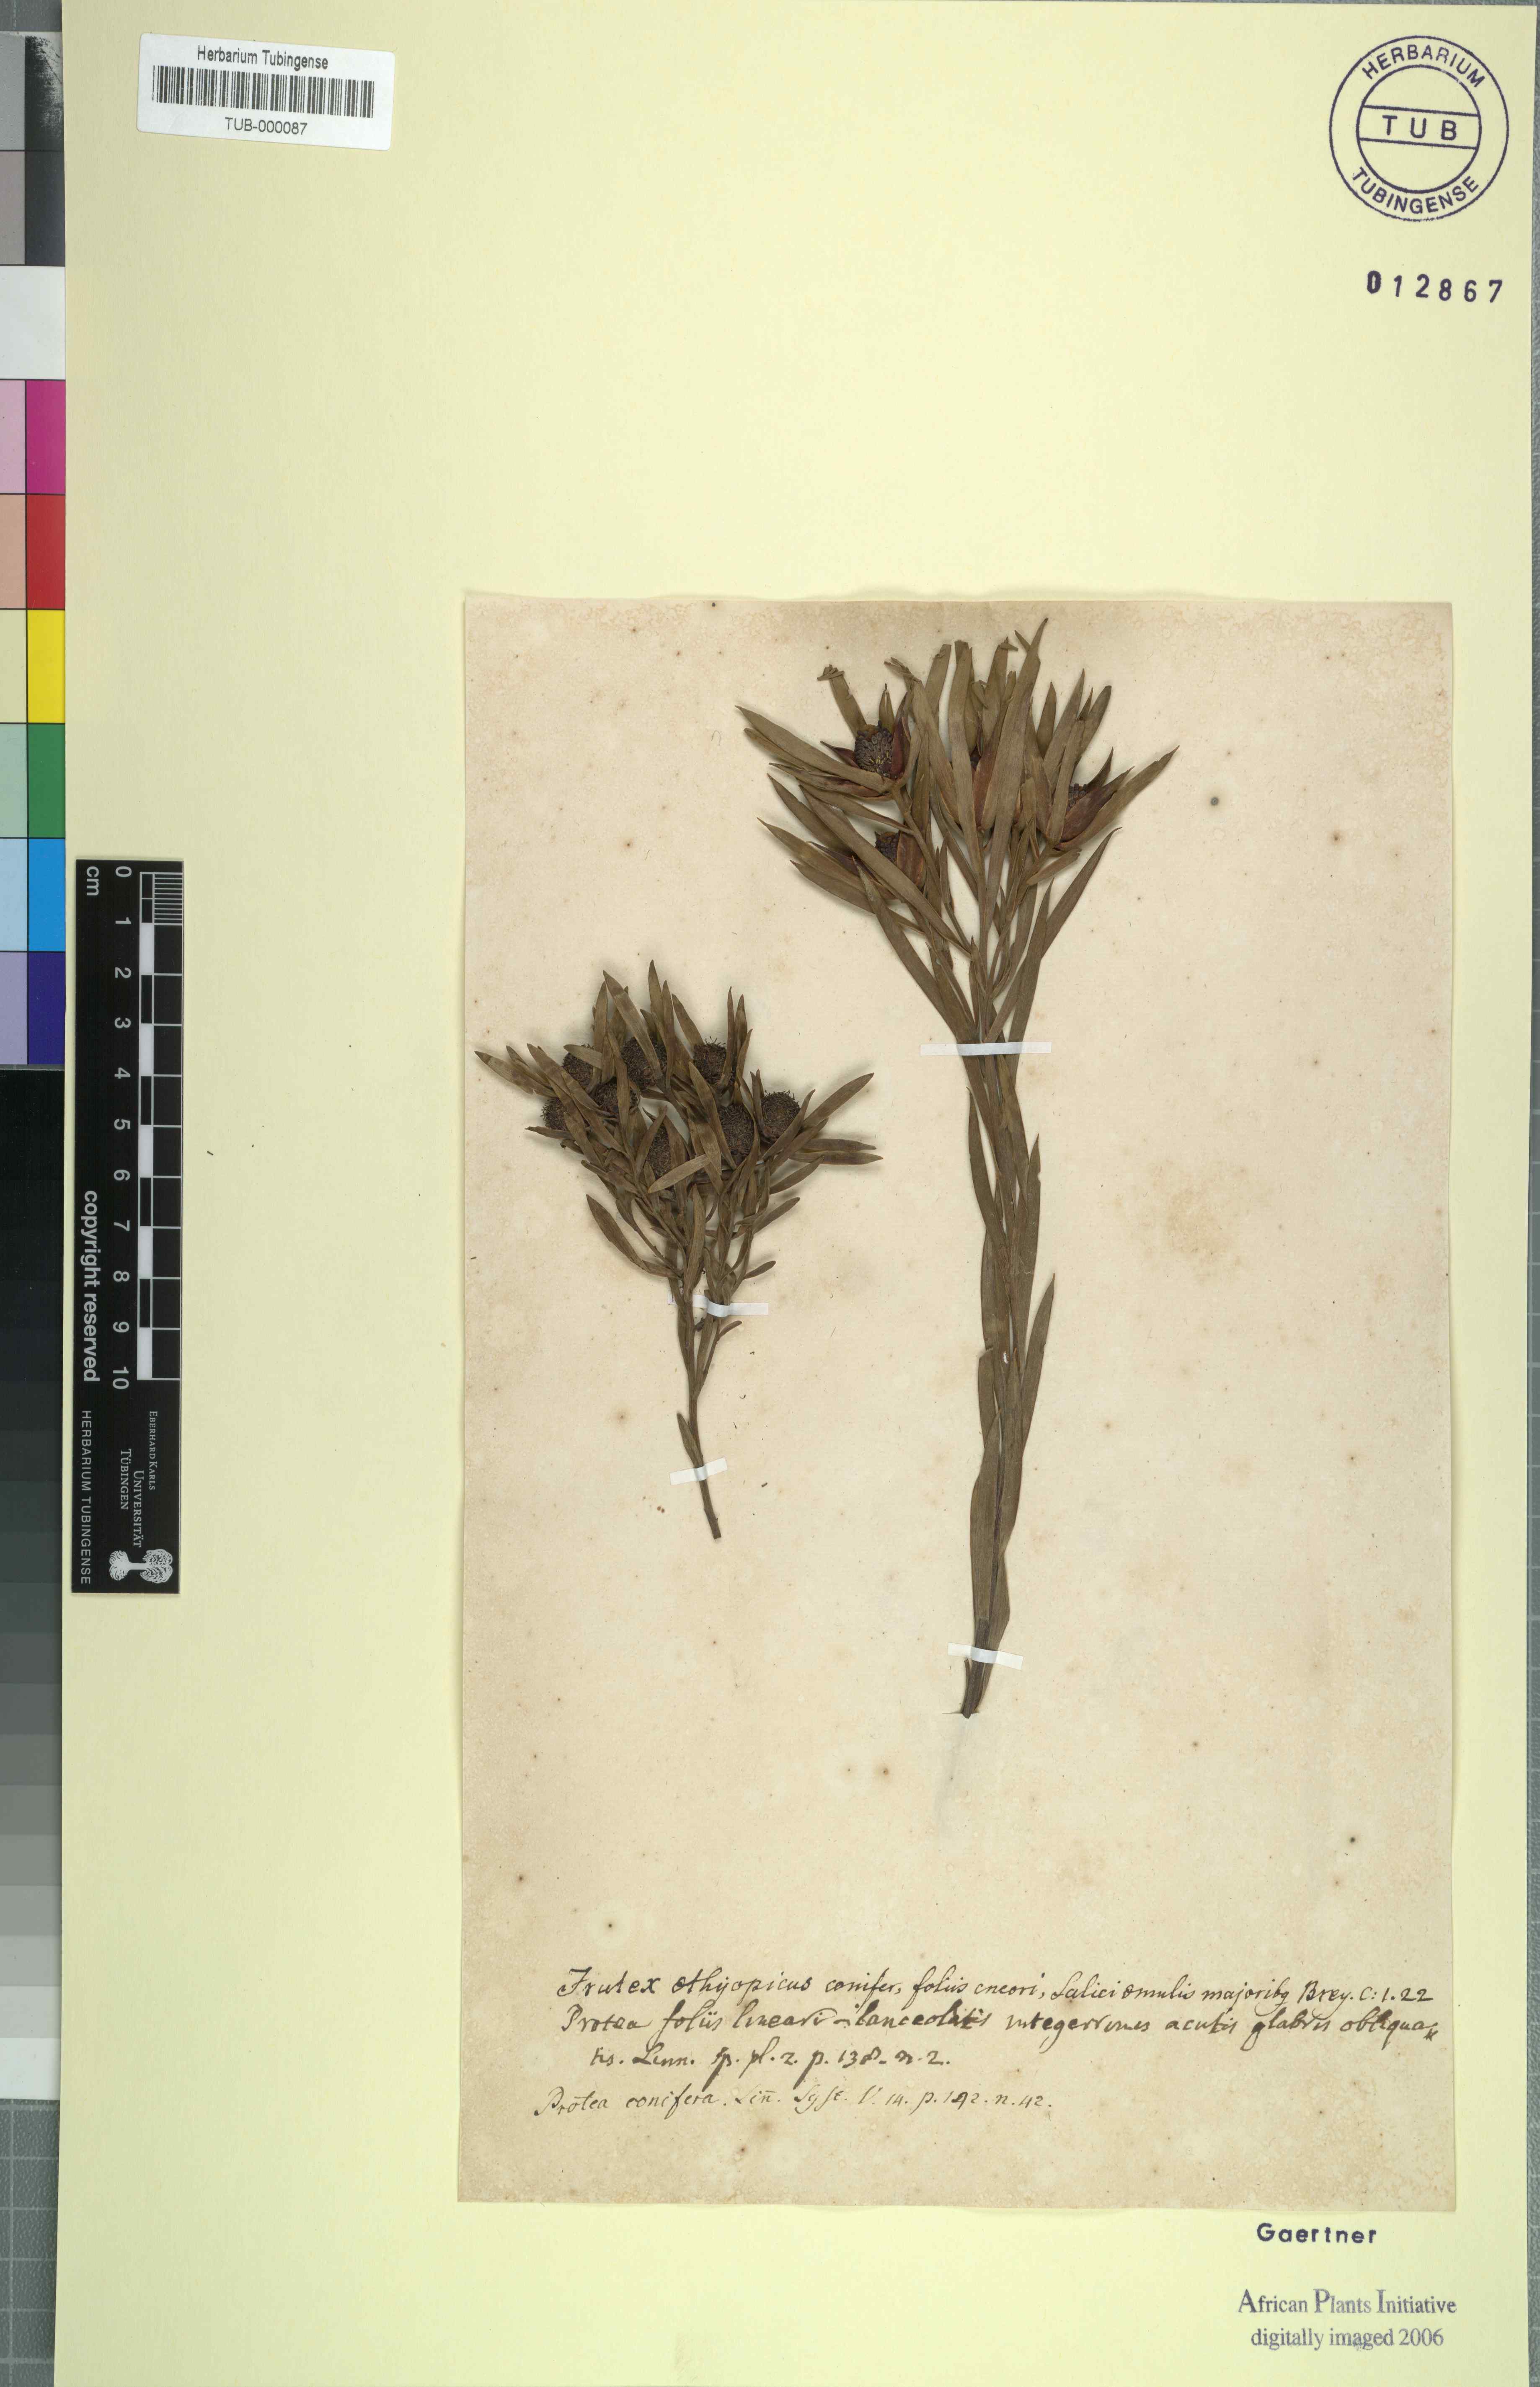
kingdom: Plantae
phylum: Tracheophyta
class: Magnoliopsida
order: Proteales
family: Proteaceae
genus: Leucadendron
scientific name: Leucadendron salignum
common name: Common sunshine conebush
